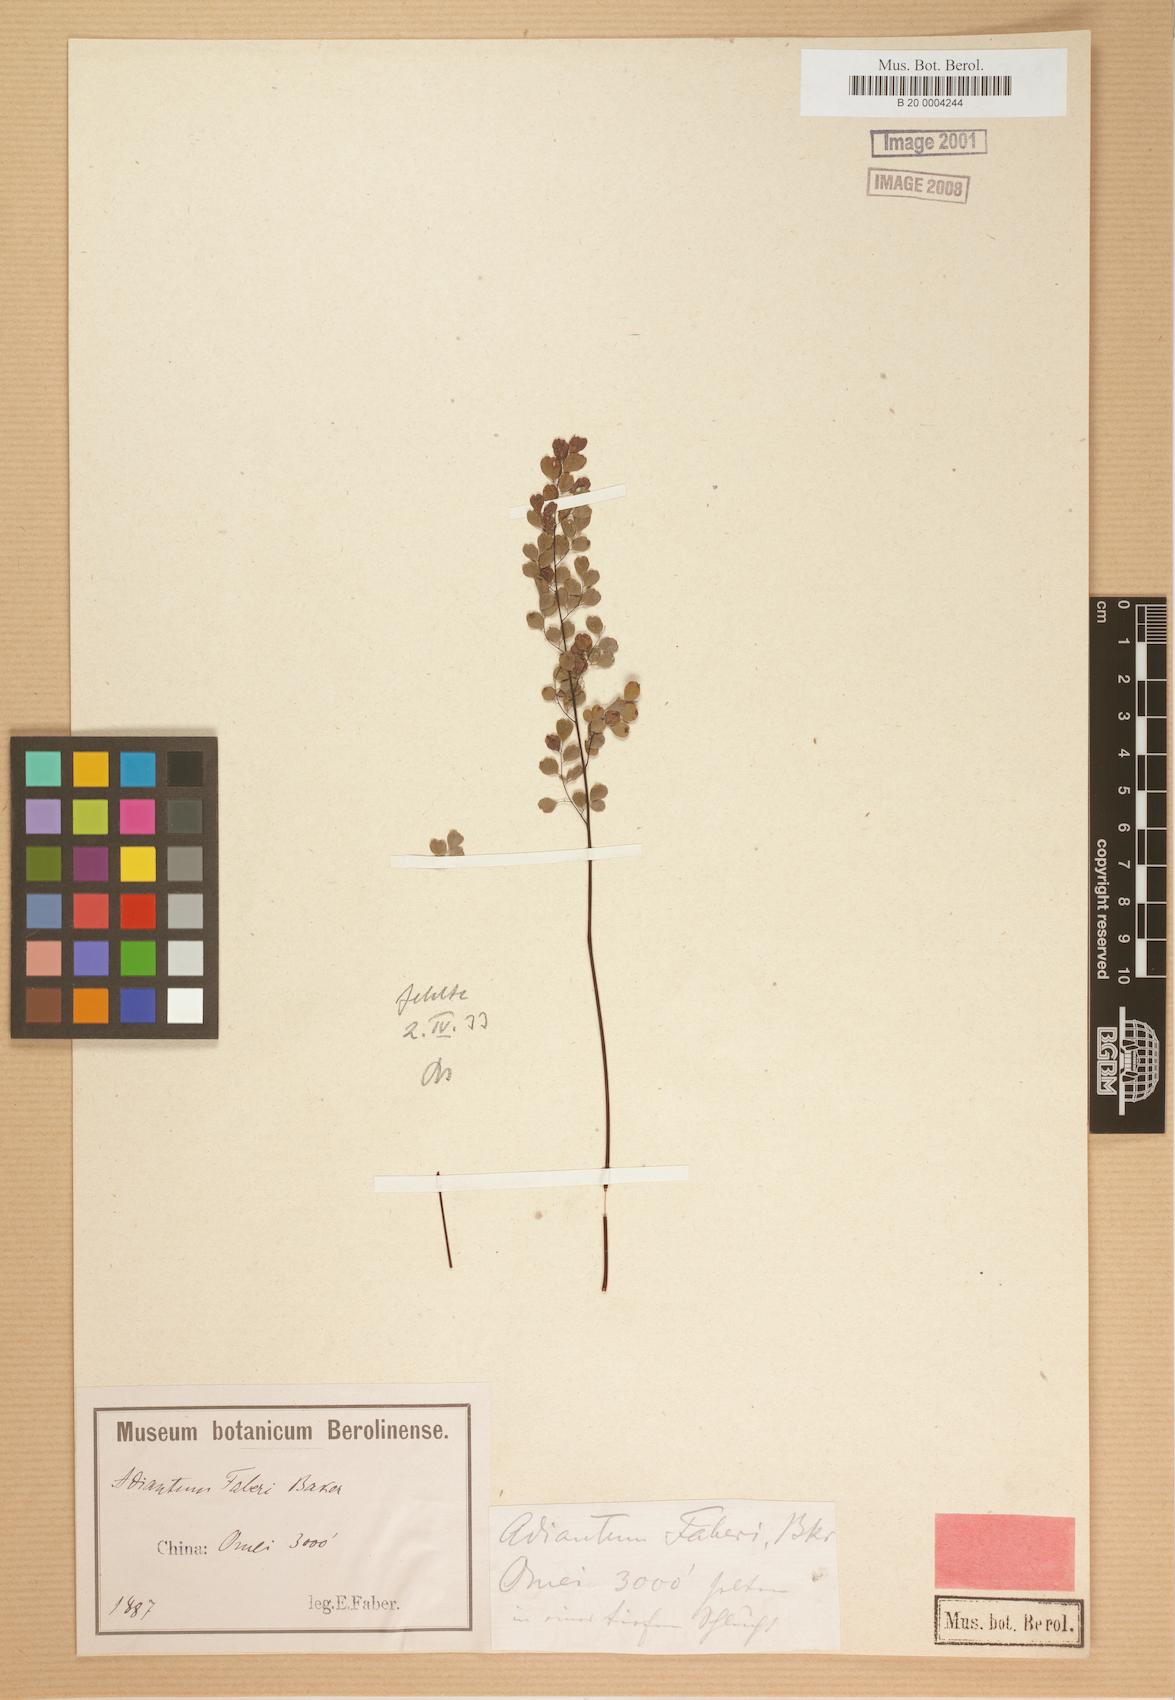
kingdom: Plantae
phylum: Tracheophyta
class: Polypodiopsida
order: Polypodiales
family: Pteridaceae
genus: Adiantum
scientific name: Adiantum roborowskii
